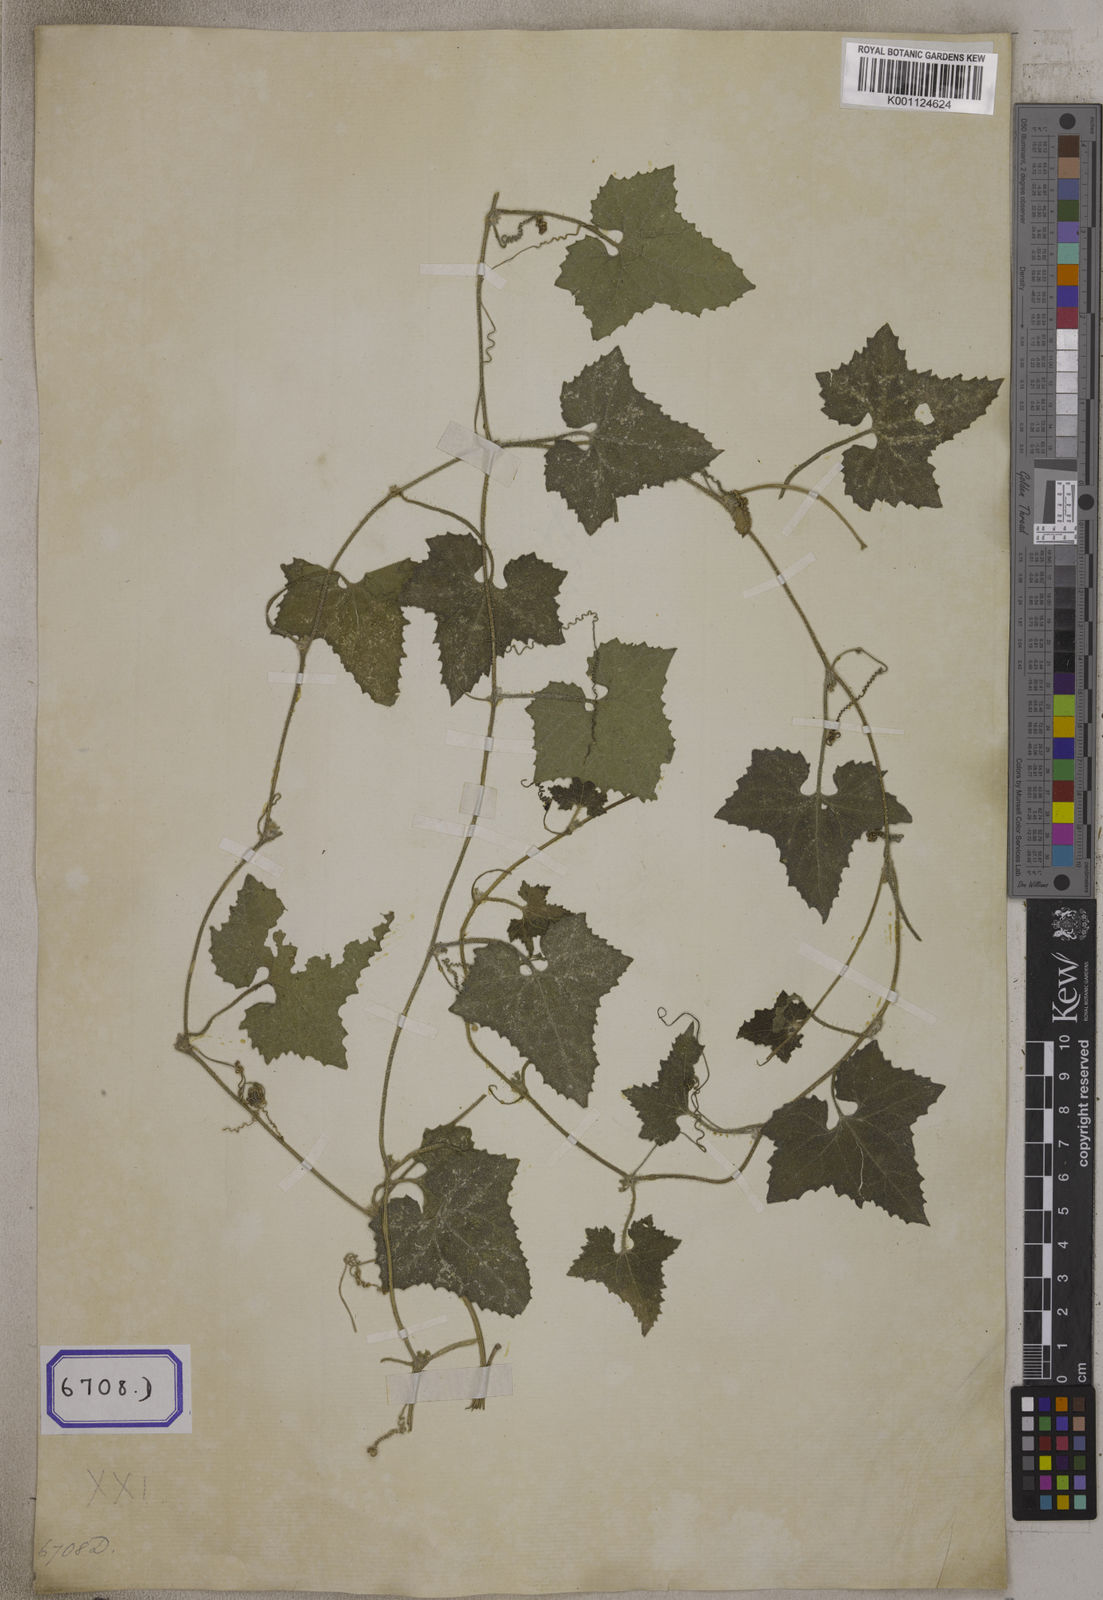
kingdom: Plantae
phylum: Tracheophyta
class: Magnoliopsida
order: Cucurbitales
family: Cucurbitaceae
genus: Bryonia
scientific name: Bryonia
